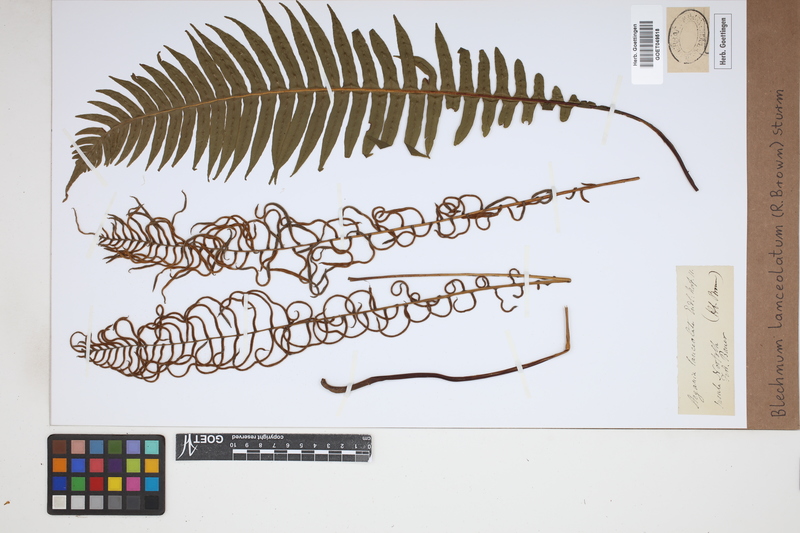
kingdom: Plantae
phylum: Tracheophyta
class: Polypodiopsida
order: Polypodiales
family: Blechnaceae
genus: Austroblechnum
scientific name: Austroblechnum lanceolatum
